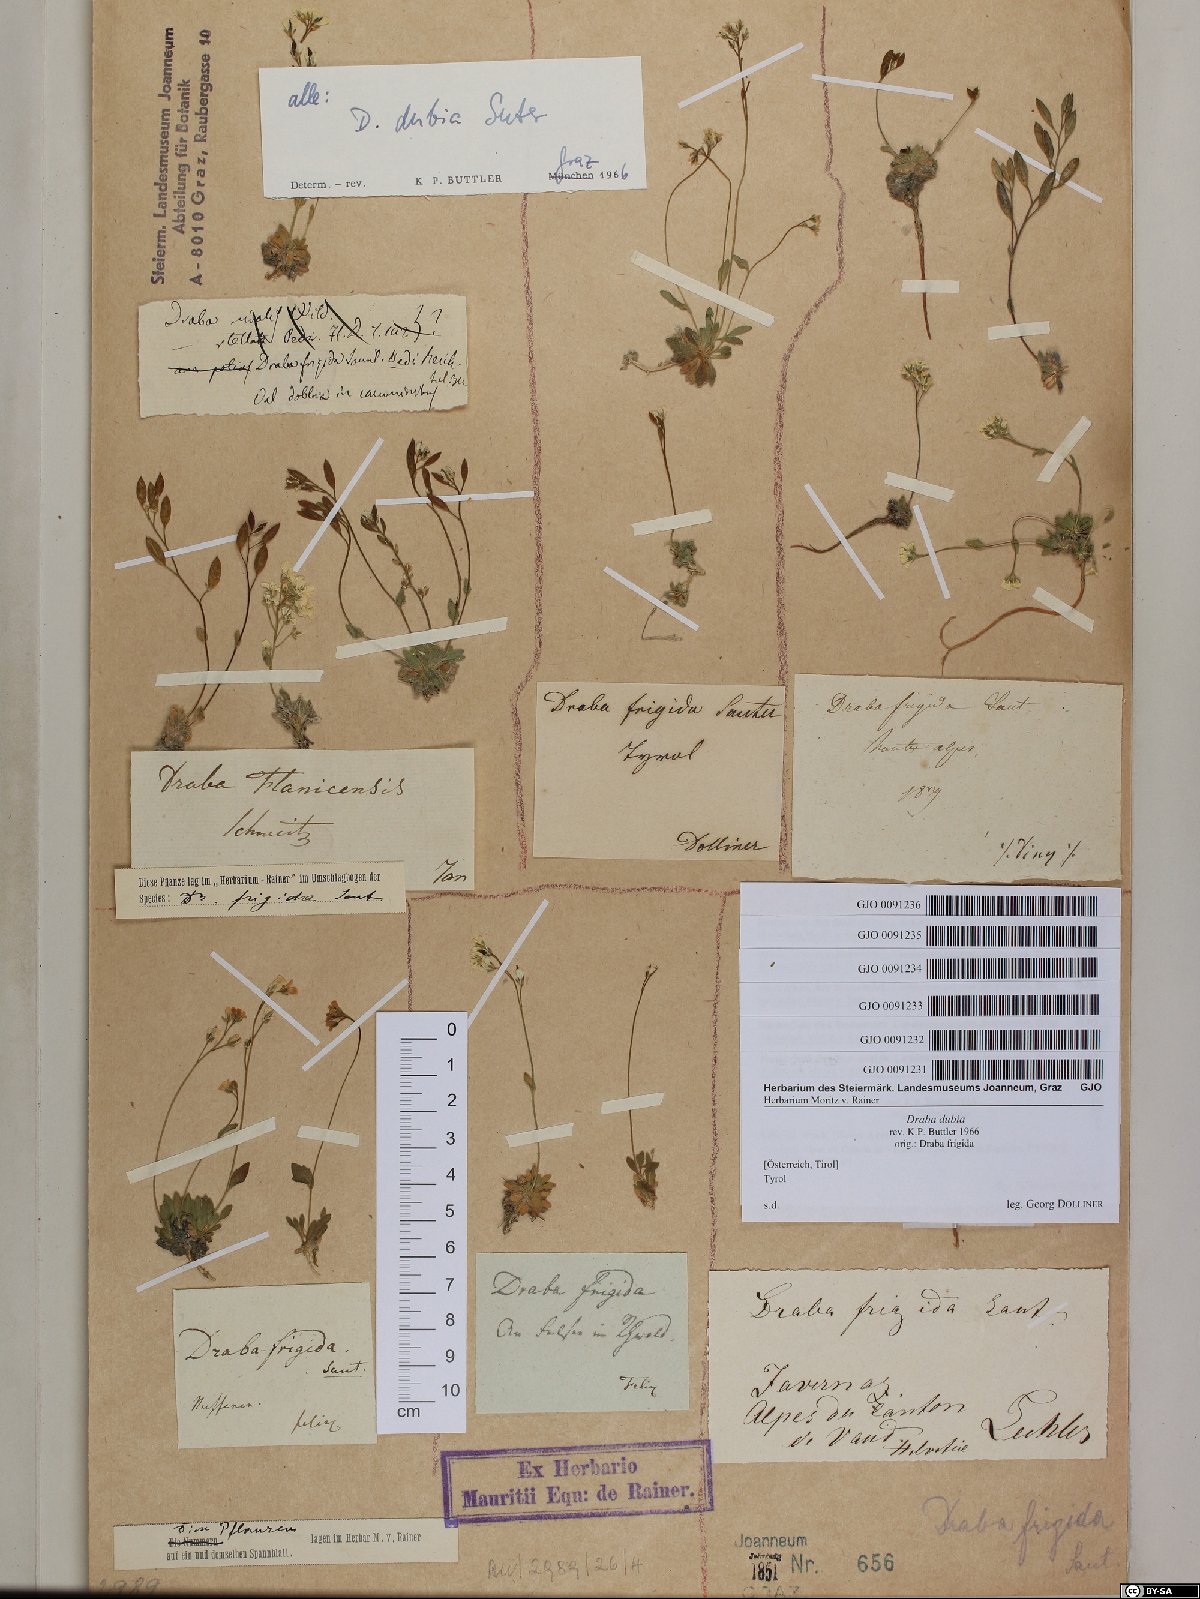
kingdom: Plantae
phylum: Tracheophyta
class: Magnoliopsida
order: Brassicales
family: Brassicaceae
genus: Draba
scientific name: Draba dubia
